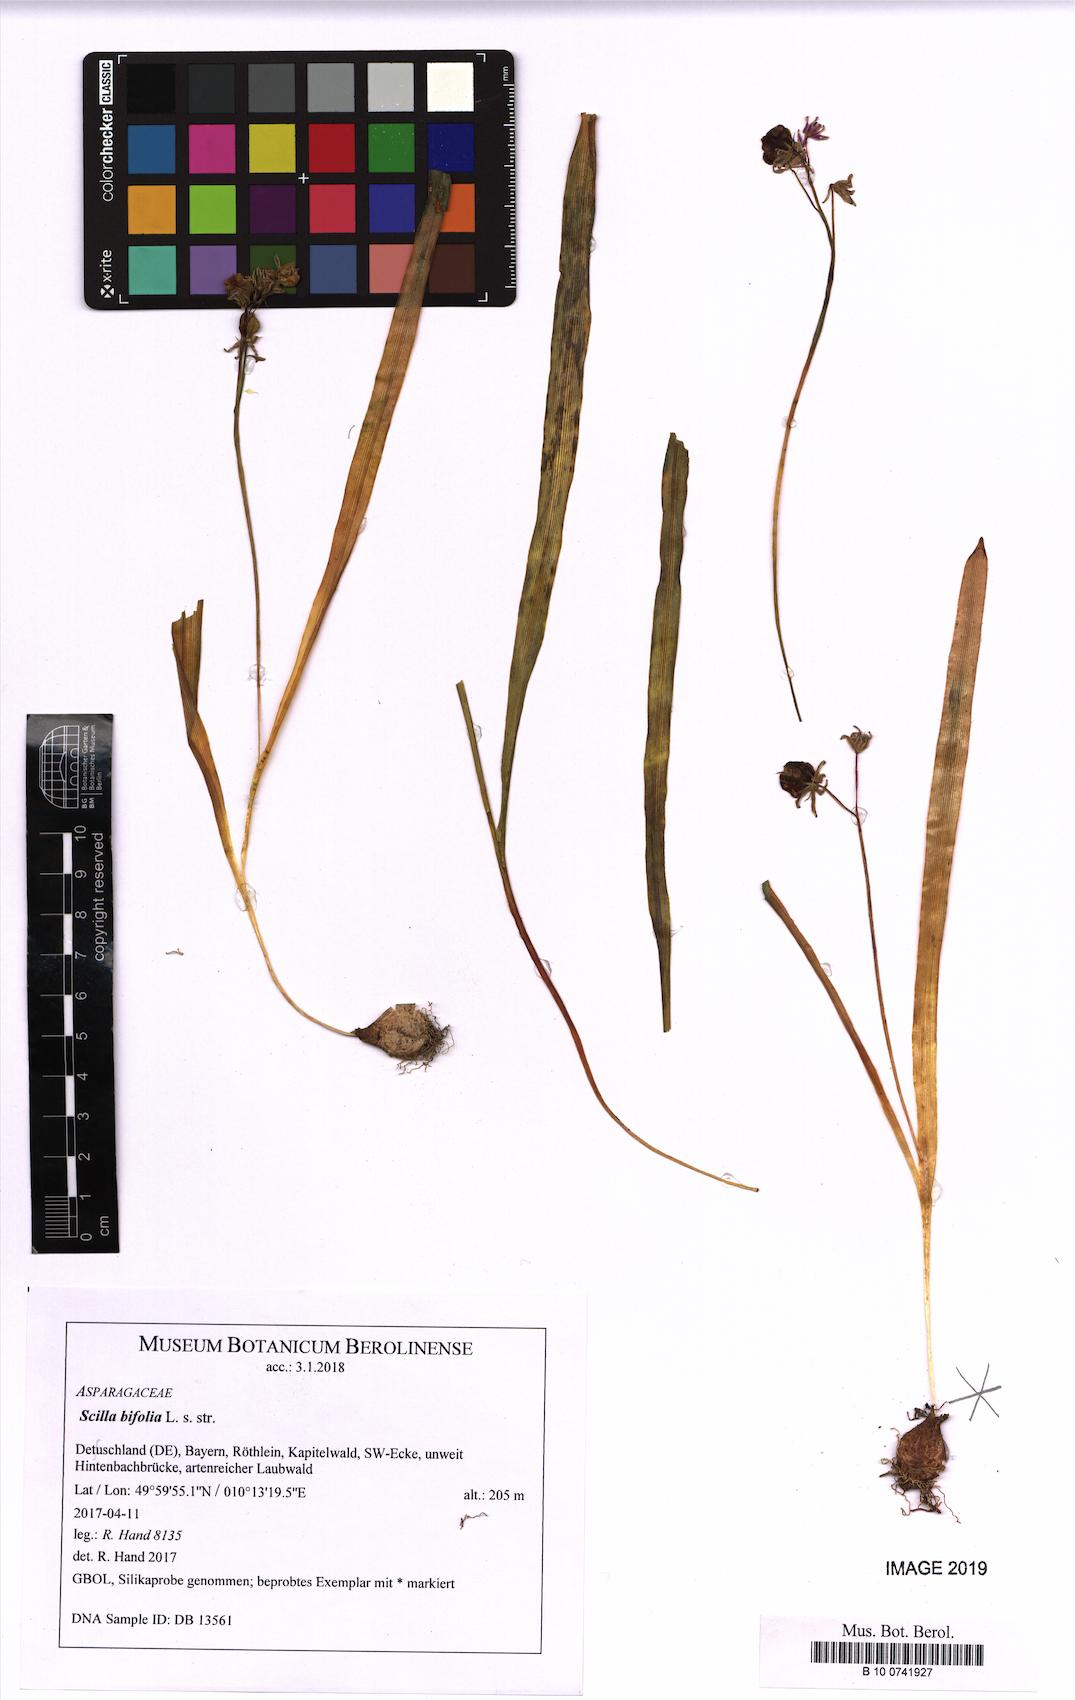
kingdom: Plantae
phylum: Tracheophyta
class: Liliopsida
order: Asparagales
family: Asparagaceae
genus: Scilla
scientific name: Scilla bifolia
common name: Alpine squill
